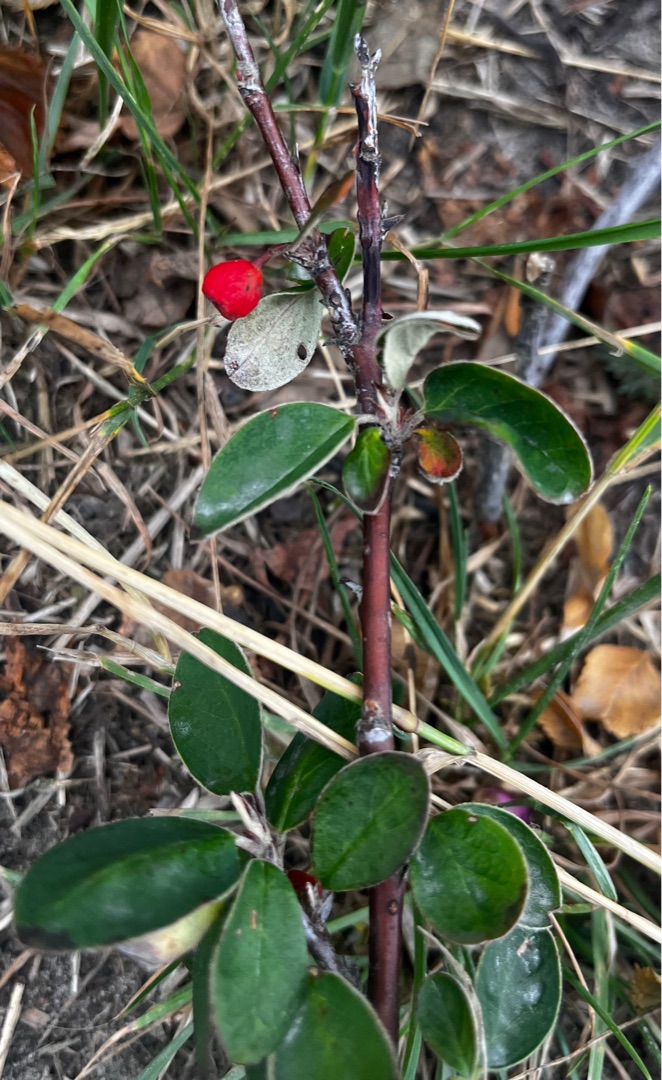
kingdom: Plantae
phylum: Tracheophyta
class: Magnoliopsida
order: Rosales
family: Rosaceae
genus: Cotoneaster
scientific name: Cotoneaster integerrimus
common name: Rød dværgmispel
